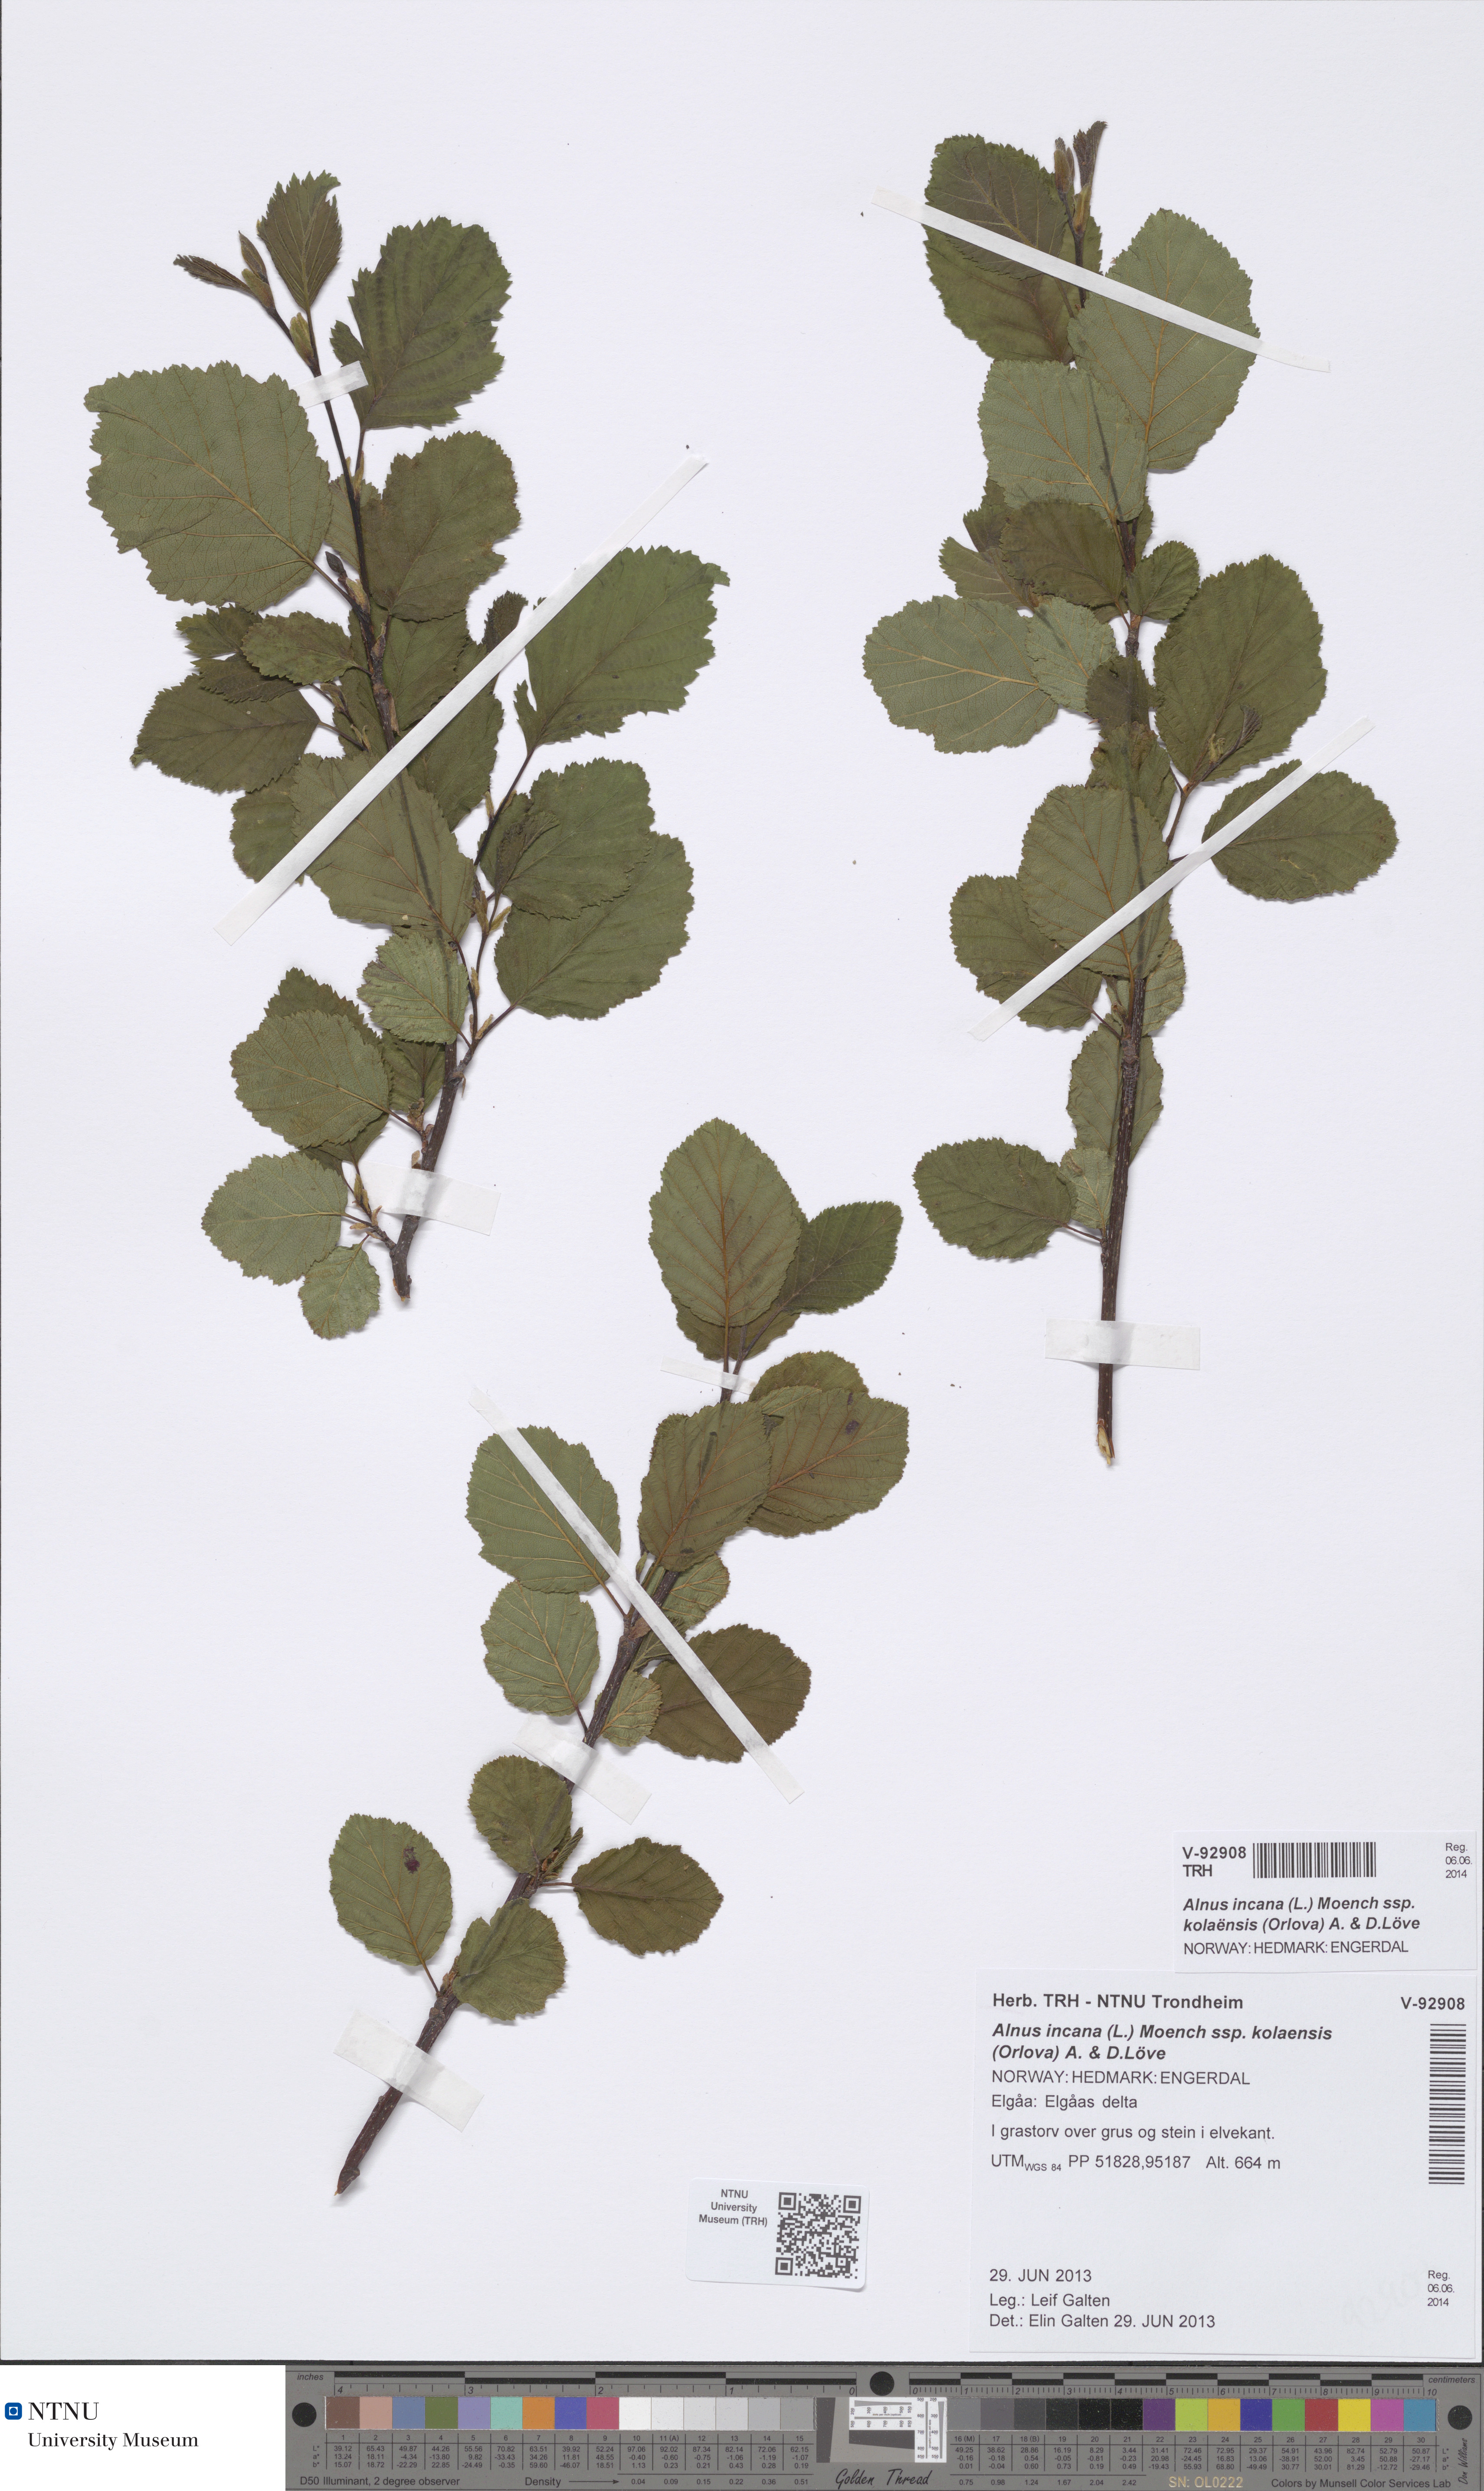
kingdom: Plantae
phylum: Tracheophyta
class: Magnoliopsida
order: Fagales
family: Betulaceae
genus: Alnus
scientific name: Alnus incana
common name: Grey alder
